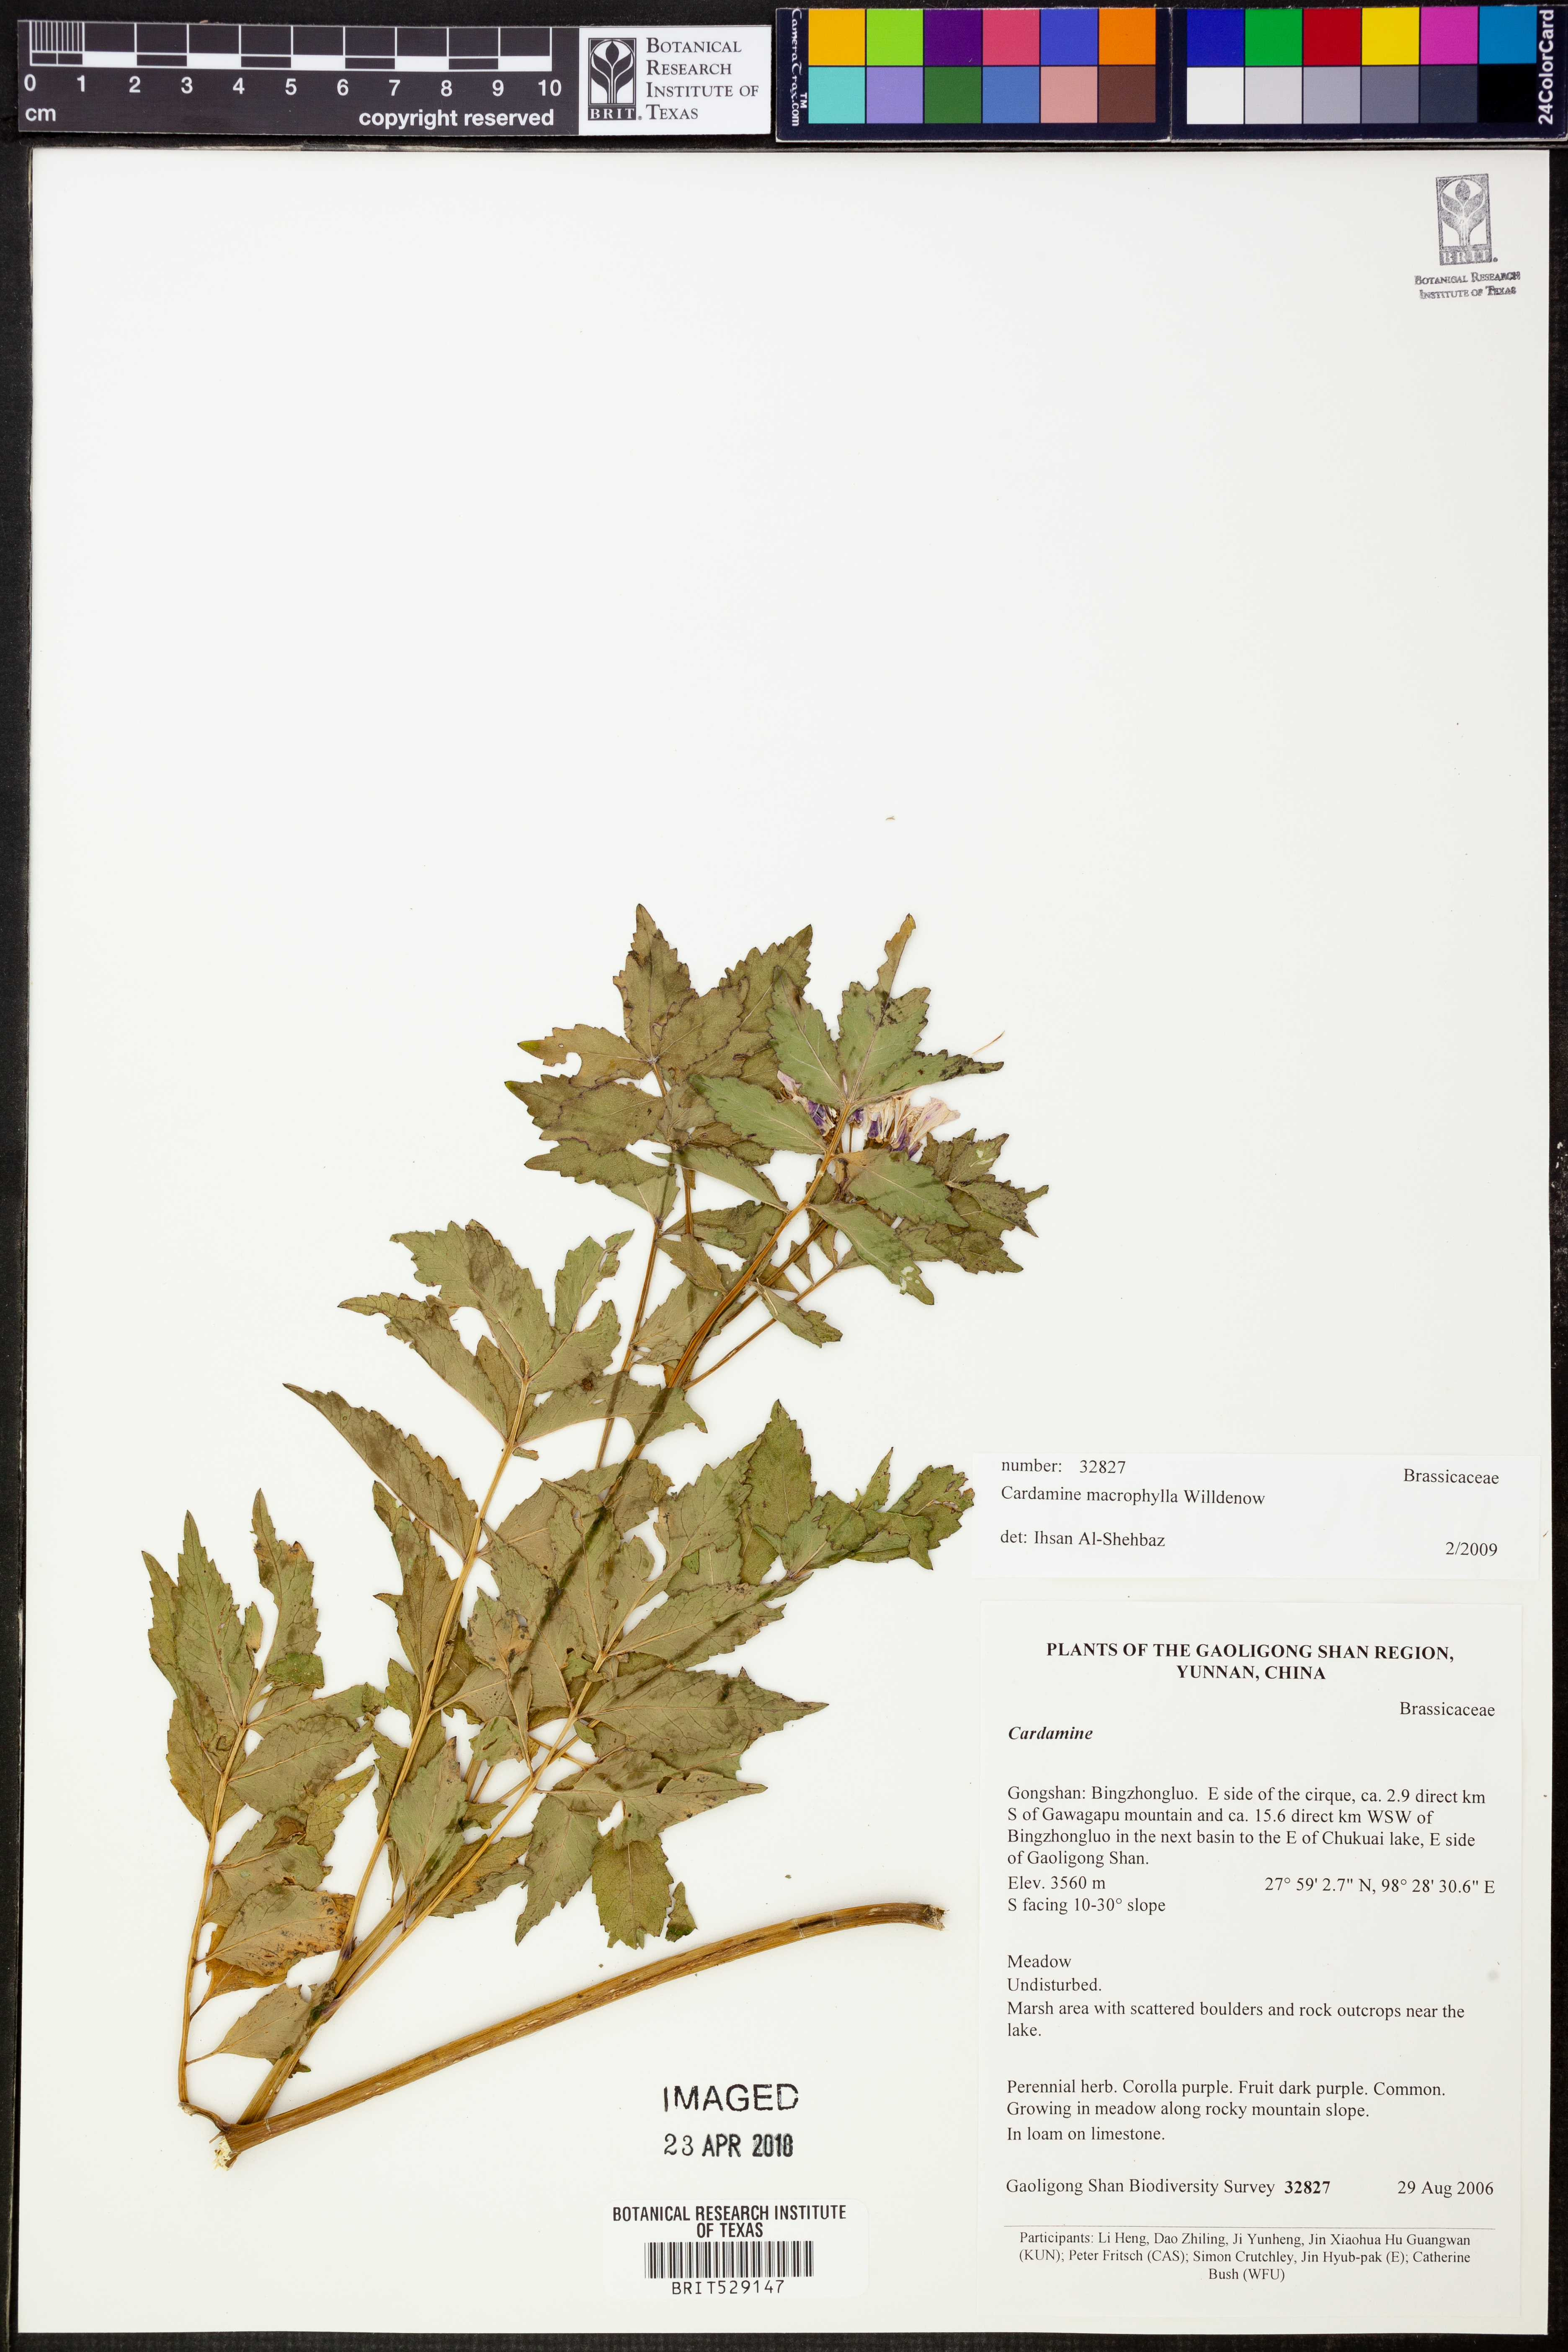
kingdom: Plantae
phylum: Tracheophyta
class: Magnoliopsida
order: Brassicales
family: Brassicaceae
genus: Cardamine
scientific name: Cardamine macrophylla
